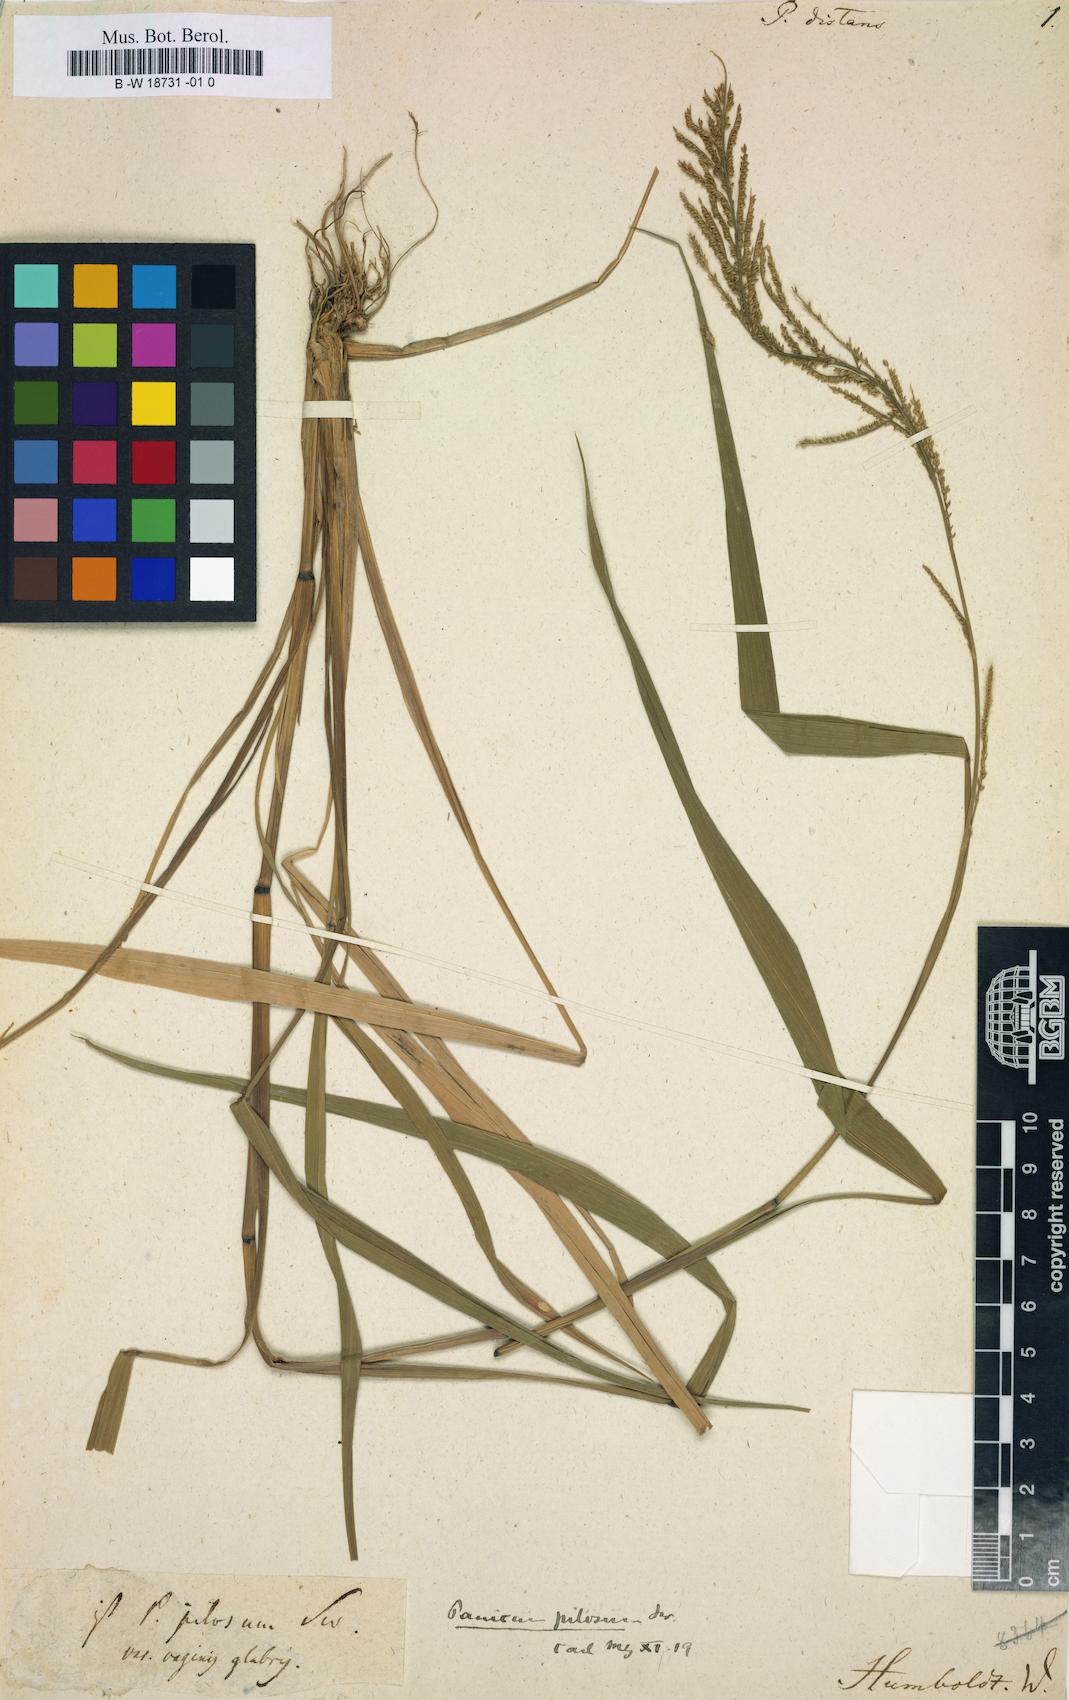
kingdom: Plantae
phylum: Tracheophyta
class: Liliopsida
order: Poales
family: Poaceae
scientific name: Poaceae
